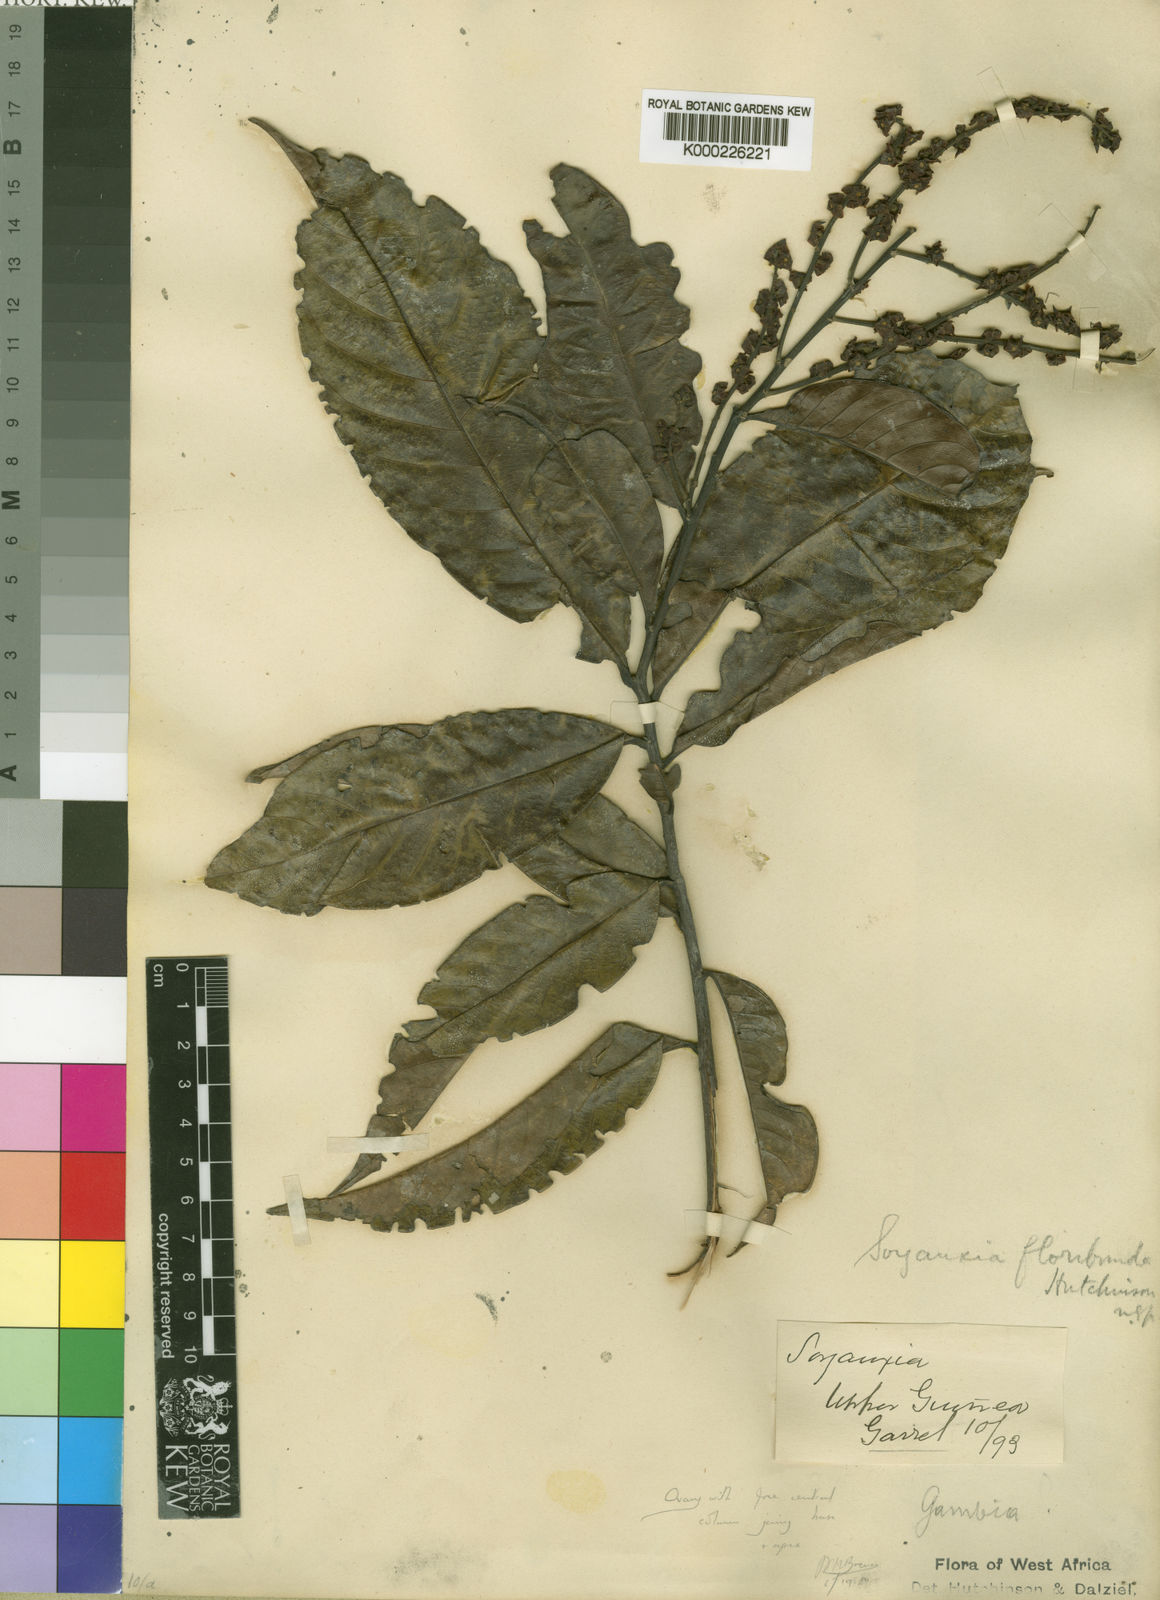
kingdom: Plantae
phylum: Tracheophyta
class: Magnoliopsida
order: Saxifragales
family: Peridiscaceae
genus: Soyauxia
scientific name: Soyauxia floribunda
